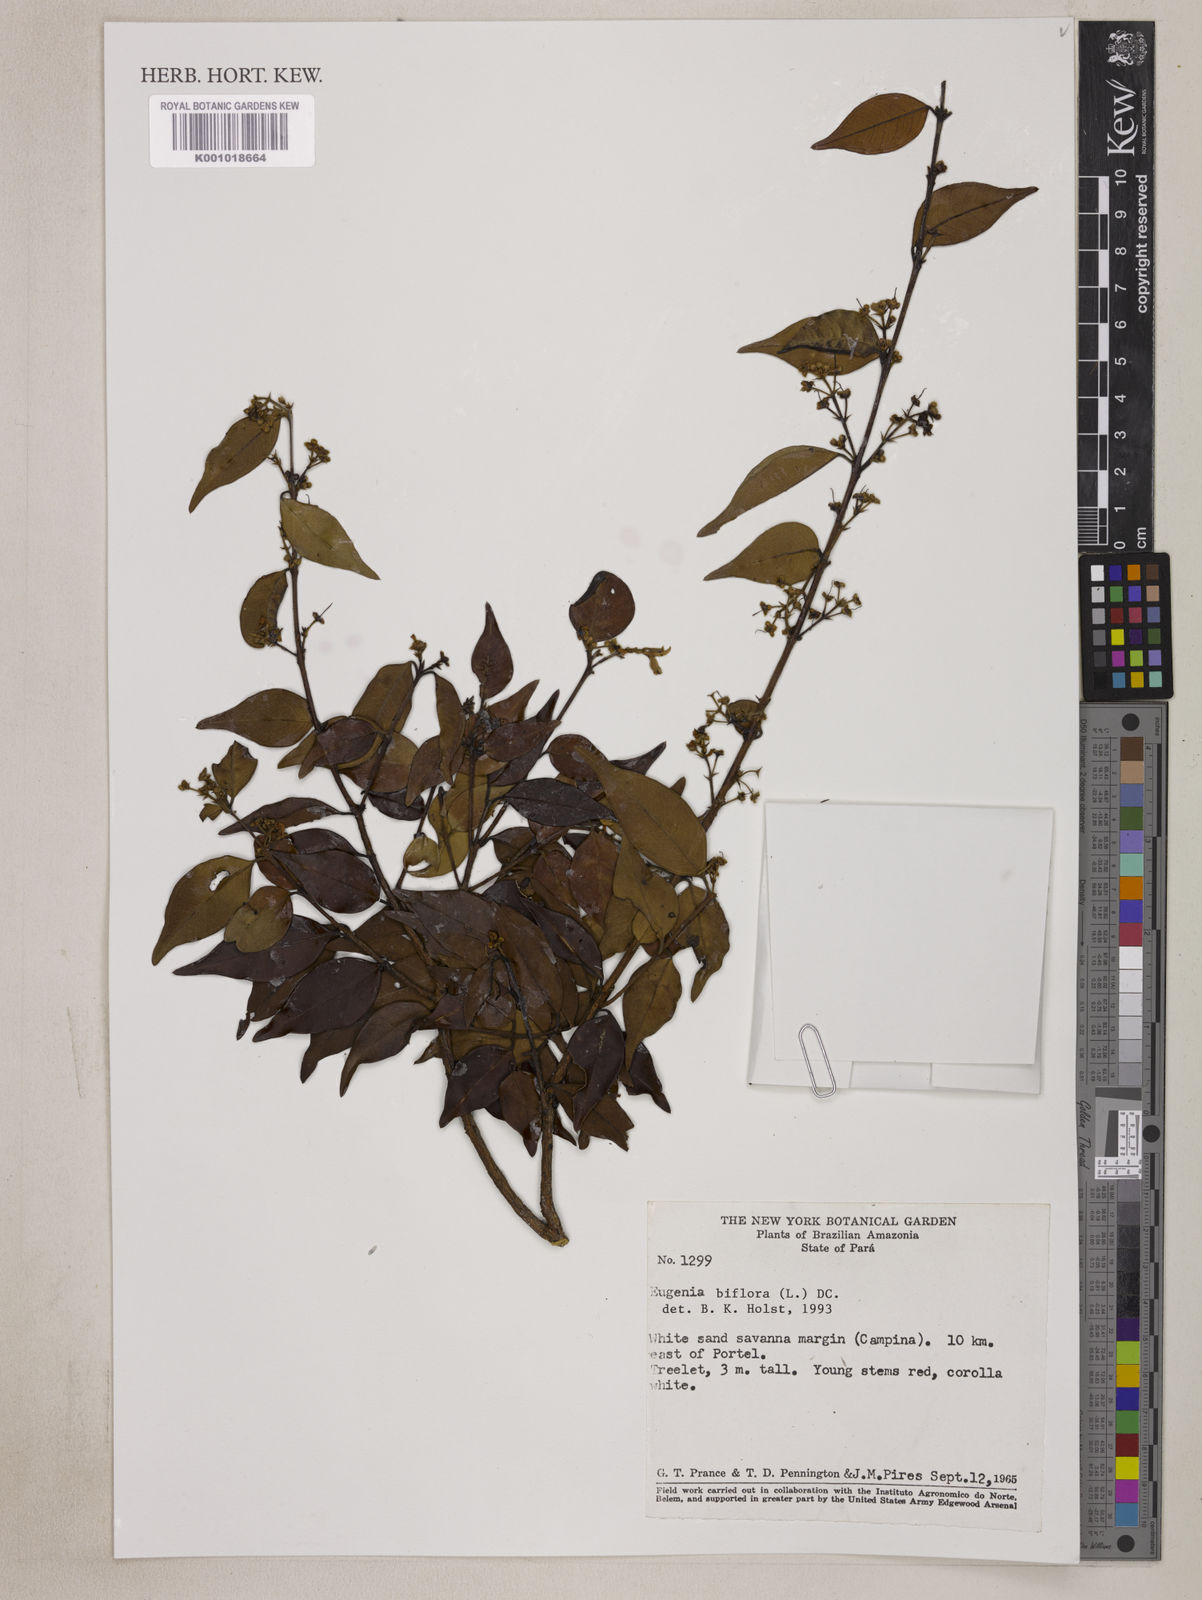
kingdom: Plantae
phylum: Tracheophyta
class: Magnoliopsida
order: Myrtales
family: Myrtaceae
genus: Eugenia
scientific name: Eugenia biflora
